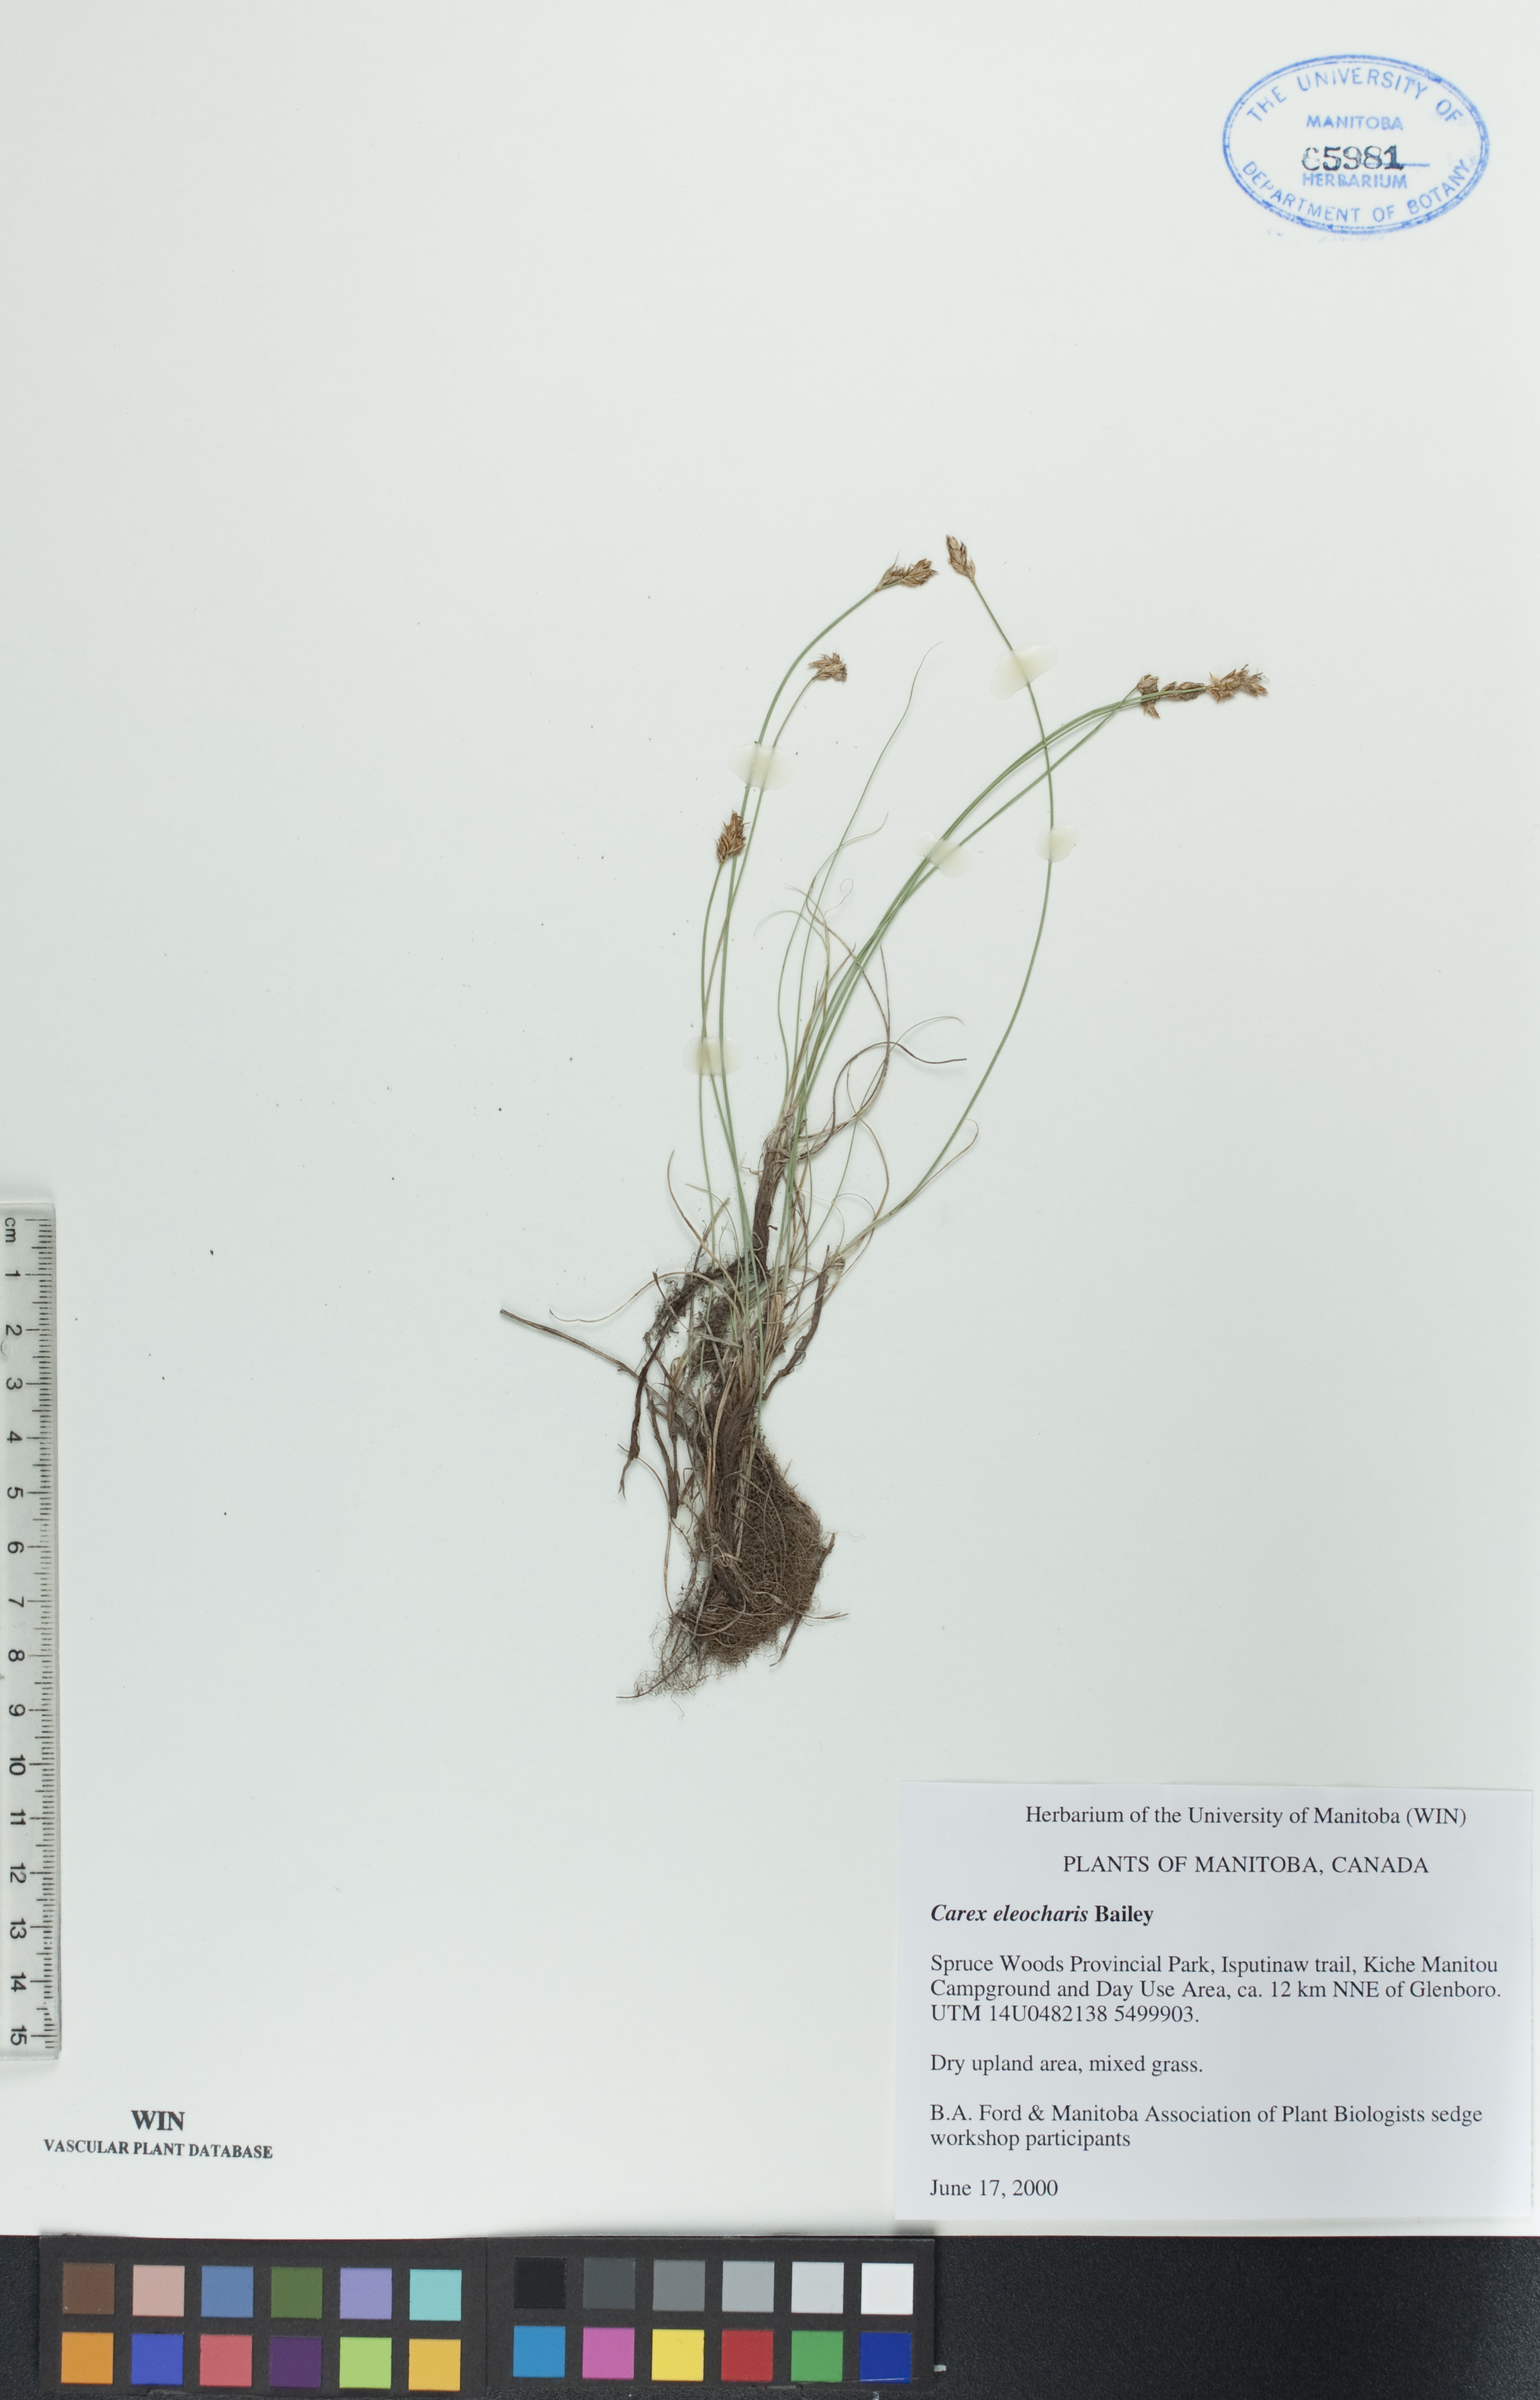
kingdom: Plantae
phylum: Tracheophyta
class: Liliopsida
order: Poales
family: Cyperaceae
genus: Carex
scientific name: Carex duriuscula
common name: Involute-leaved sedge
